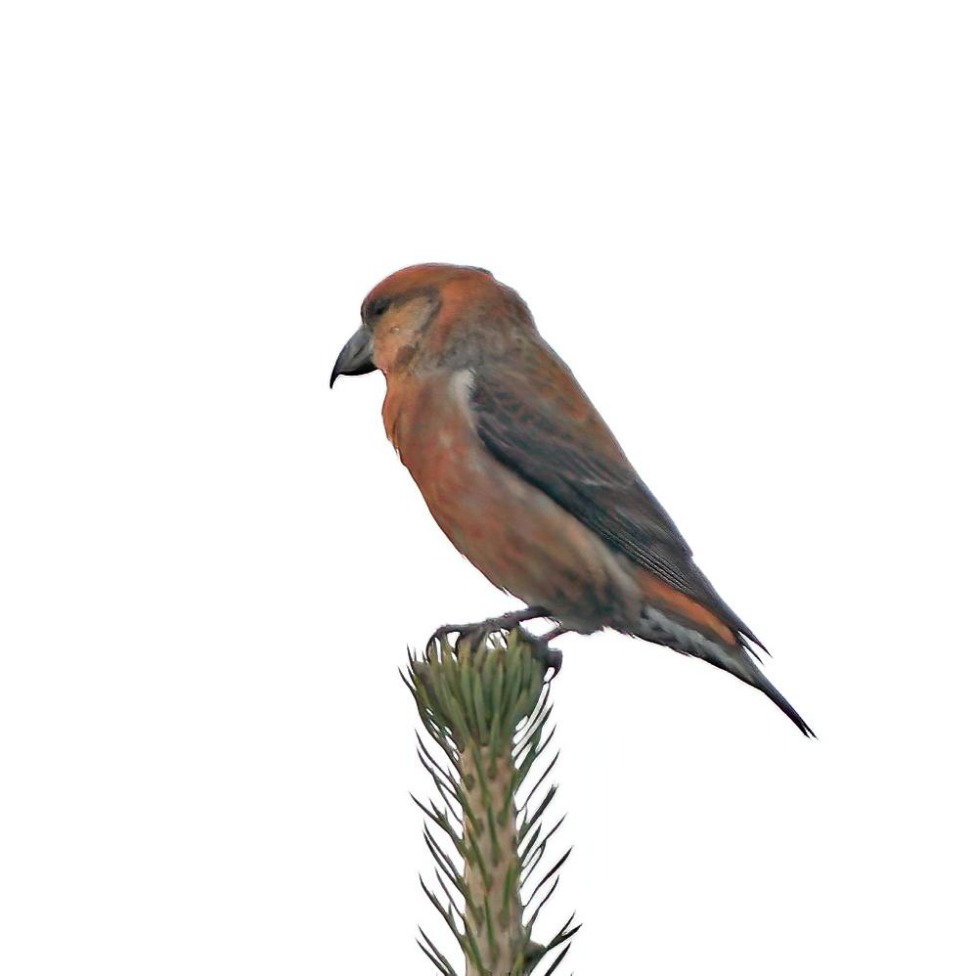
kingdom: Animalia
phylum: Chordata
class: Aves
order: Passeriformes
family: Fringillidae
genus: Loxia
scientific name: Loxia curvirostra
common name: Lille korsnæb
